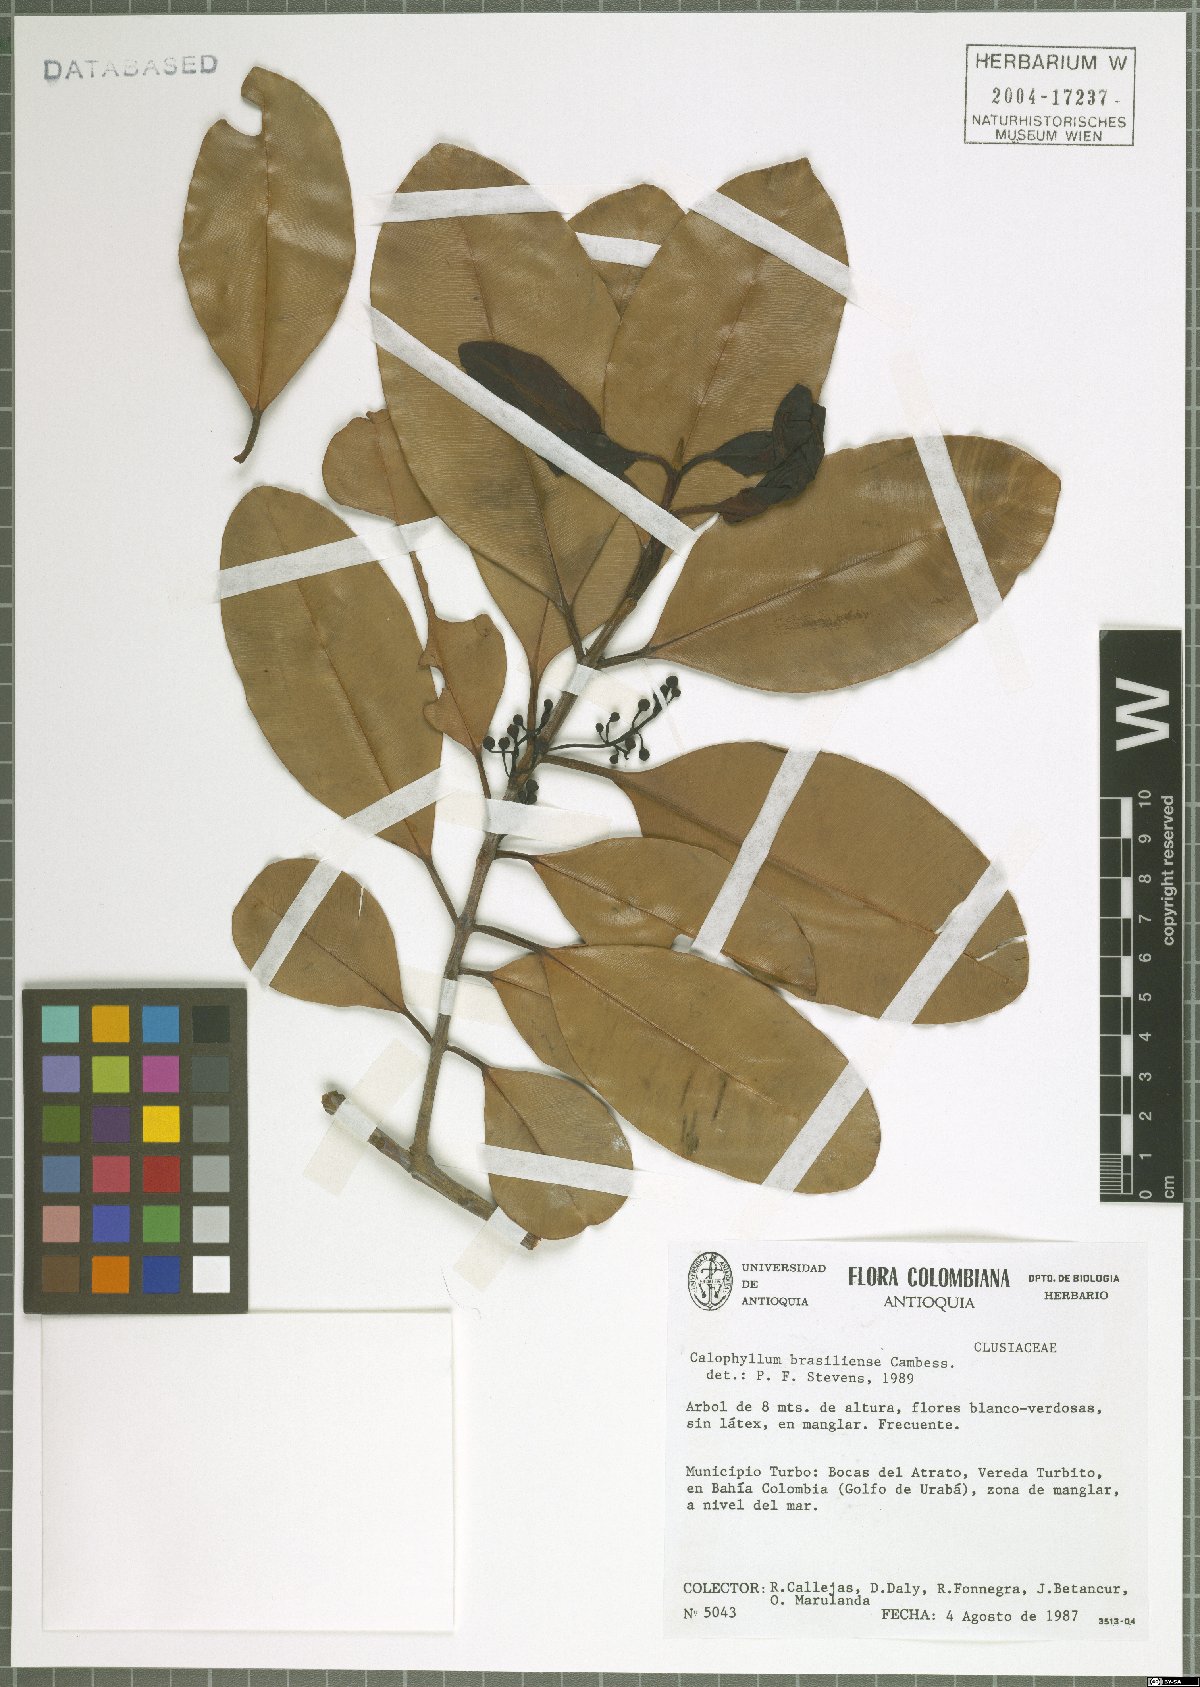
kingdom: Plantae
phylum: Tracheophyta
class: Magnoliopsida
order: Malpighiales
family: Calophyllaceae
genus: Calophyllum
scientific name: Calophyllum brasiliense
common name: Santa maria
